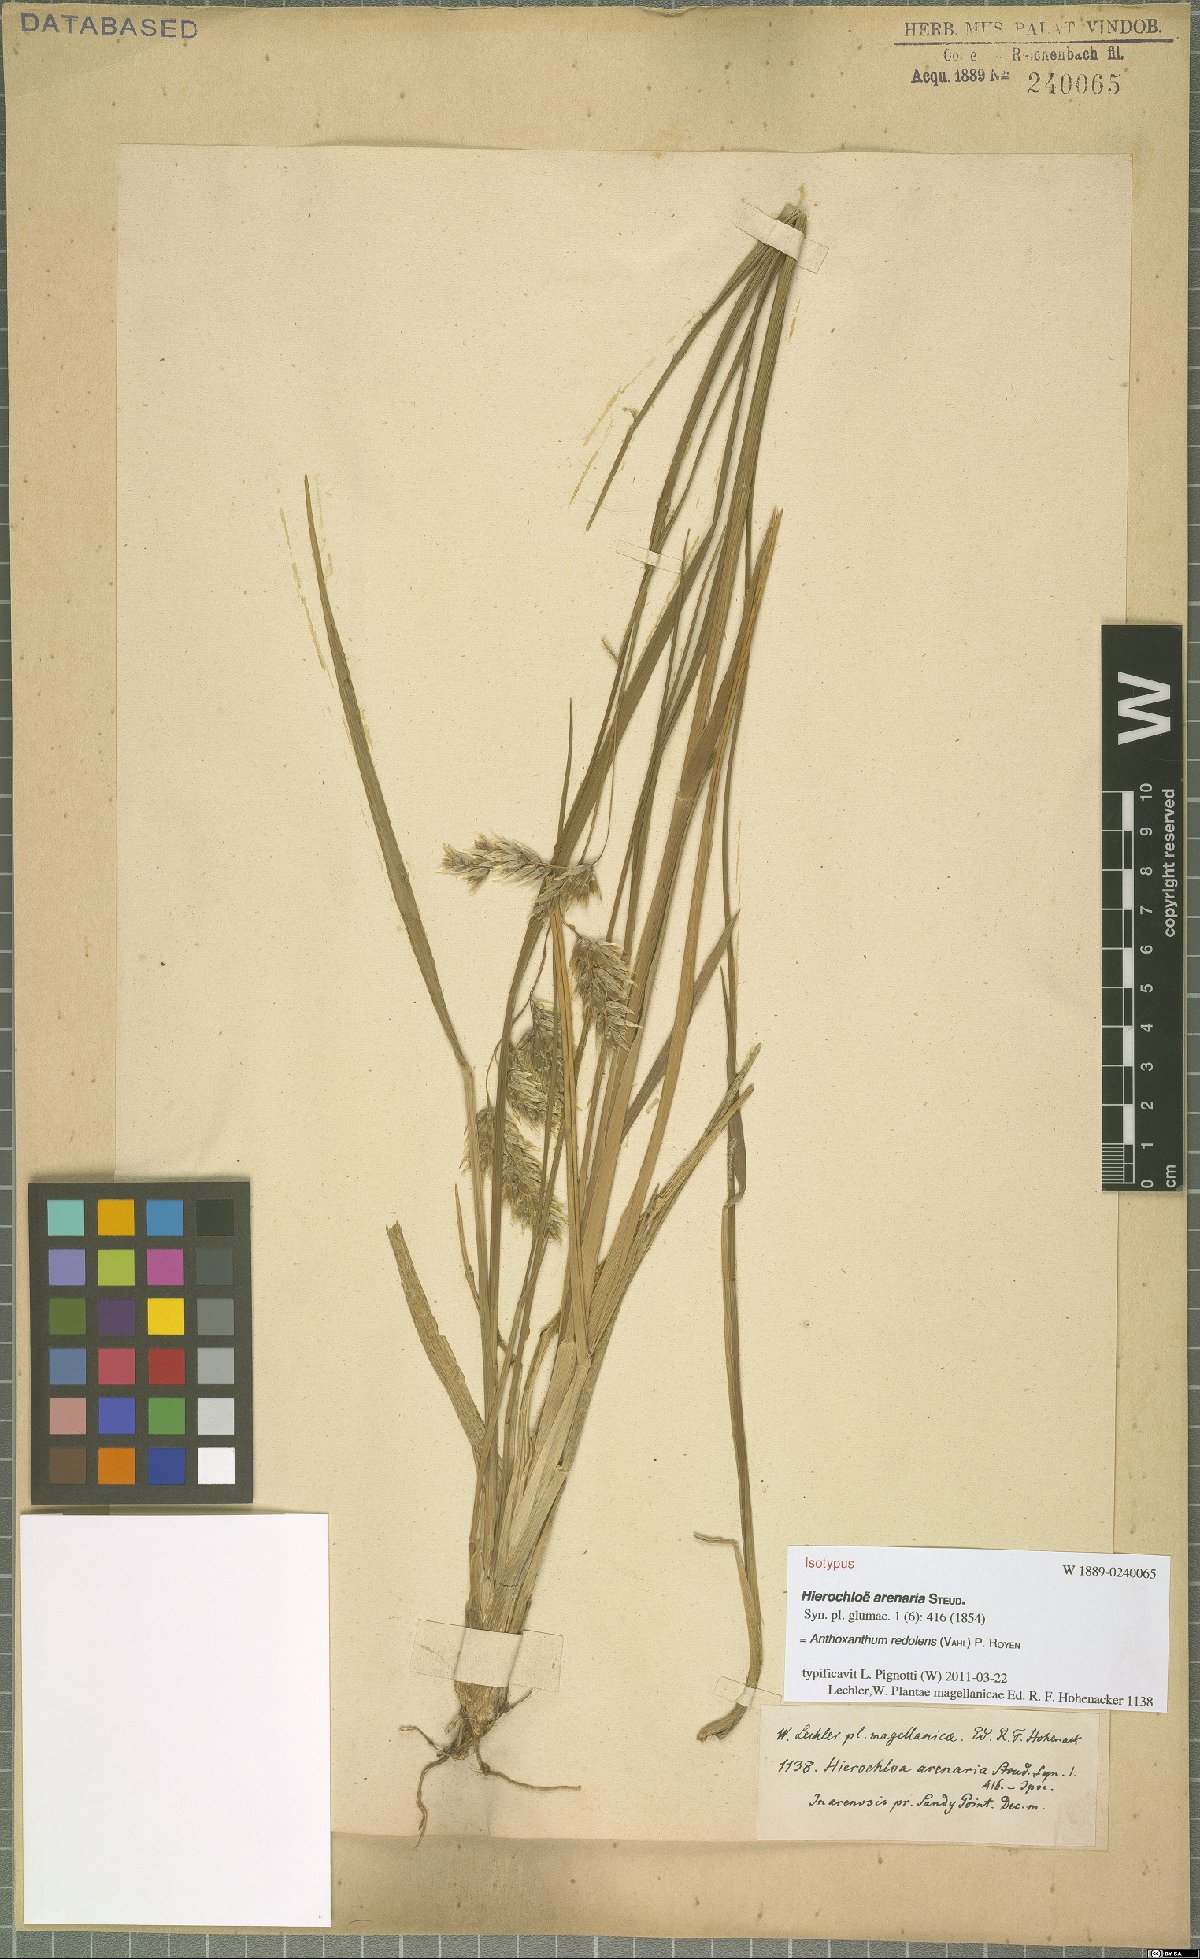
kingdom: Plantae
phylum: Tracheophyta
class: Liliopsida
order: Poales
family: Poaceae
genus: Anthoxanthum
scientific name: Anthoxanthum redolens
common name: Sweet holy grass
